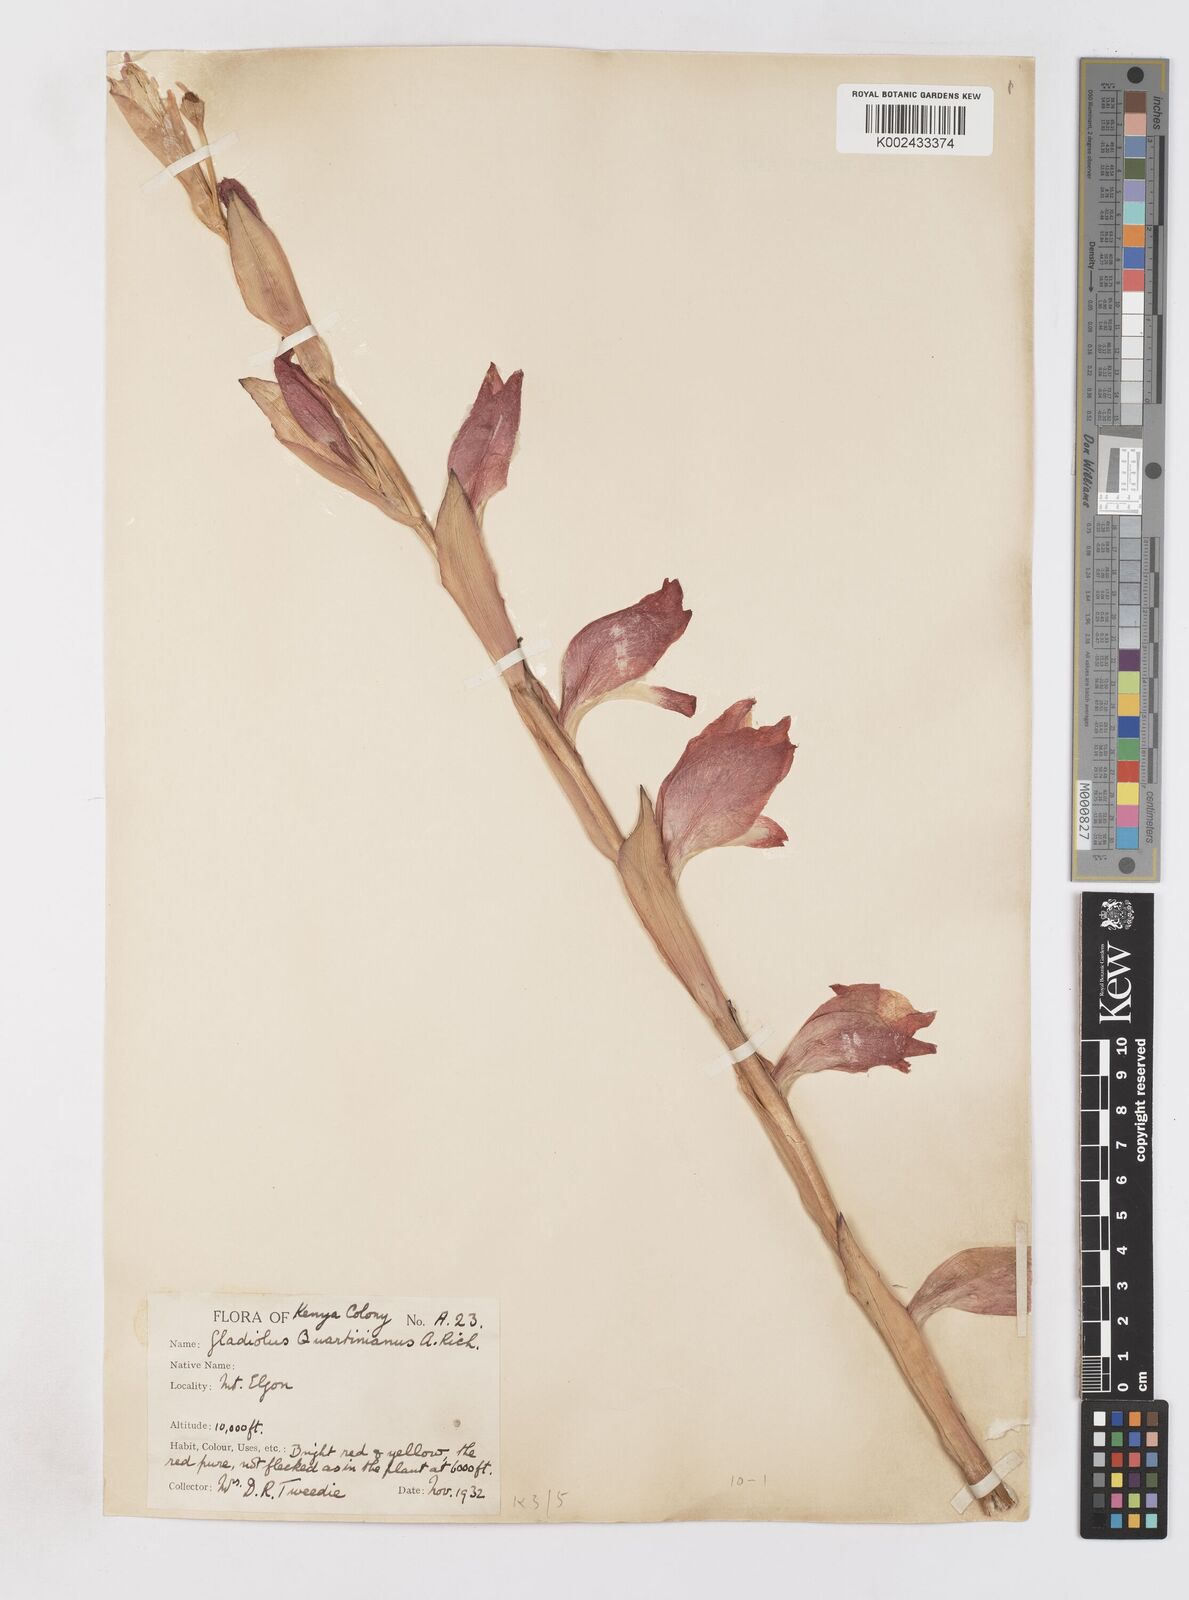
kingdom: Plantae
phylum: Tracheophyta
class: Liliopsida
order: Asparagales
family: Iridaceae
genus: Gladiolus
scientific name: Gladiolus dalenii
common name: Cornflag
